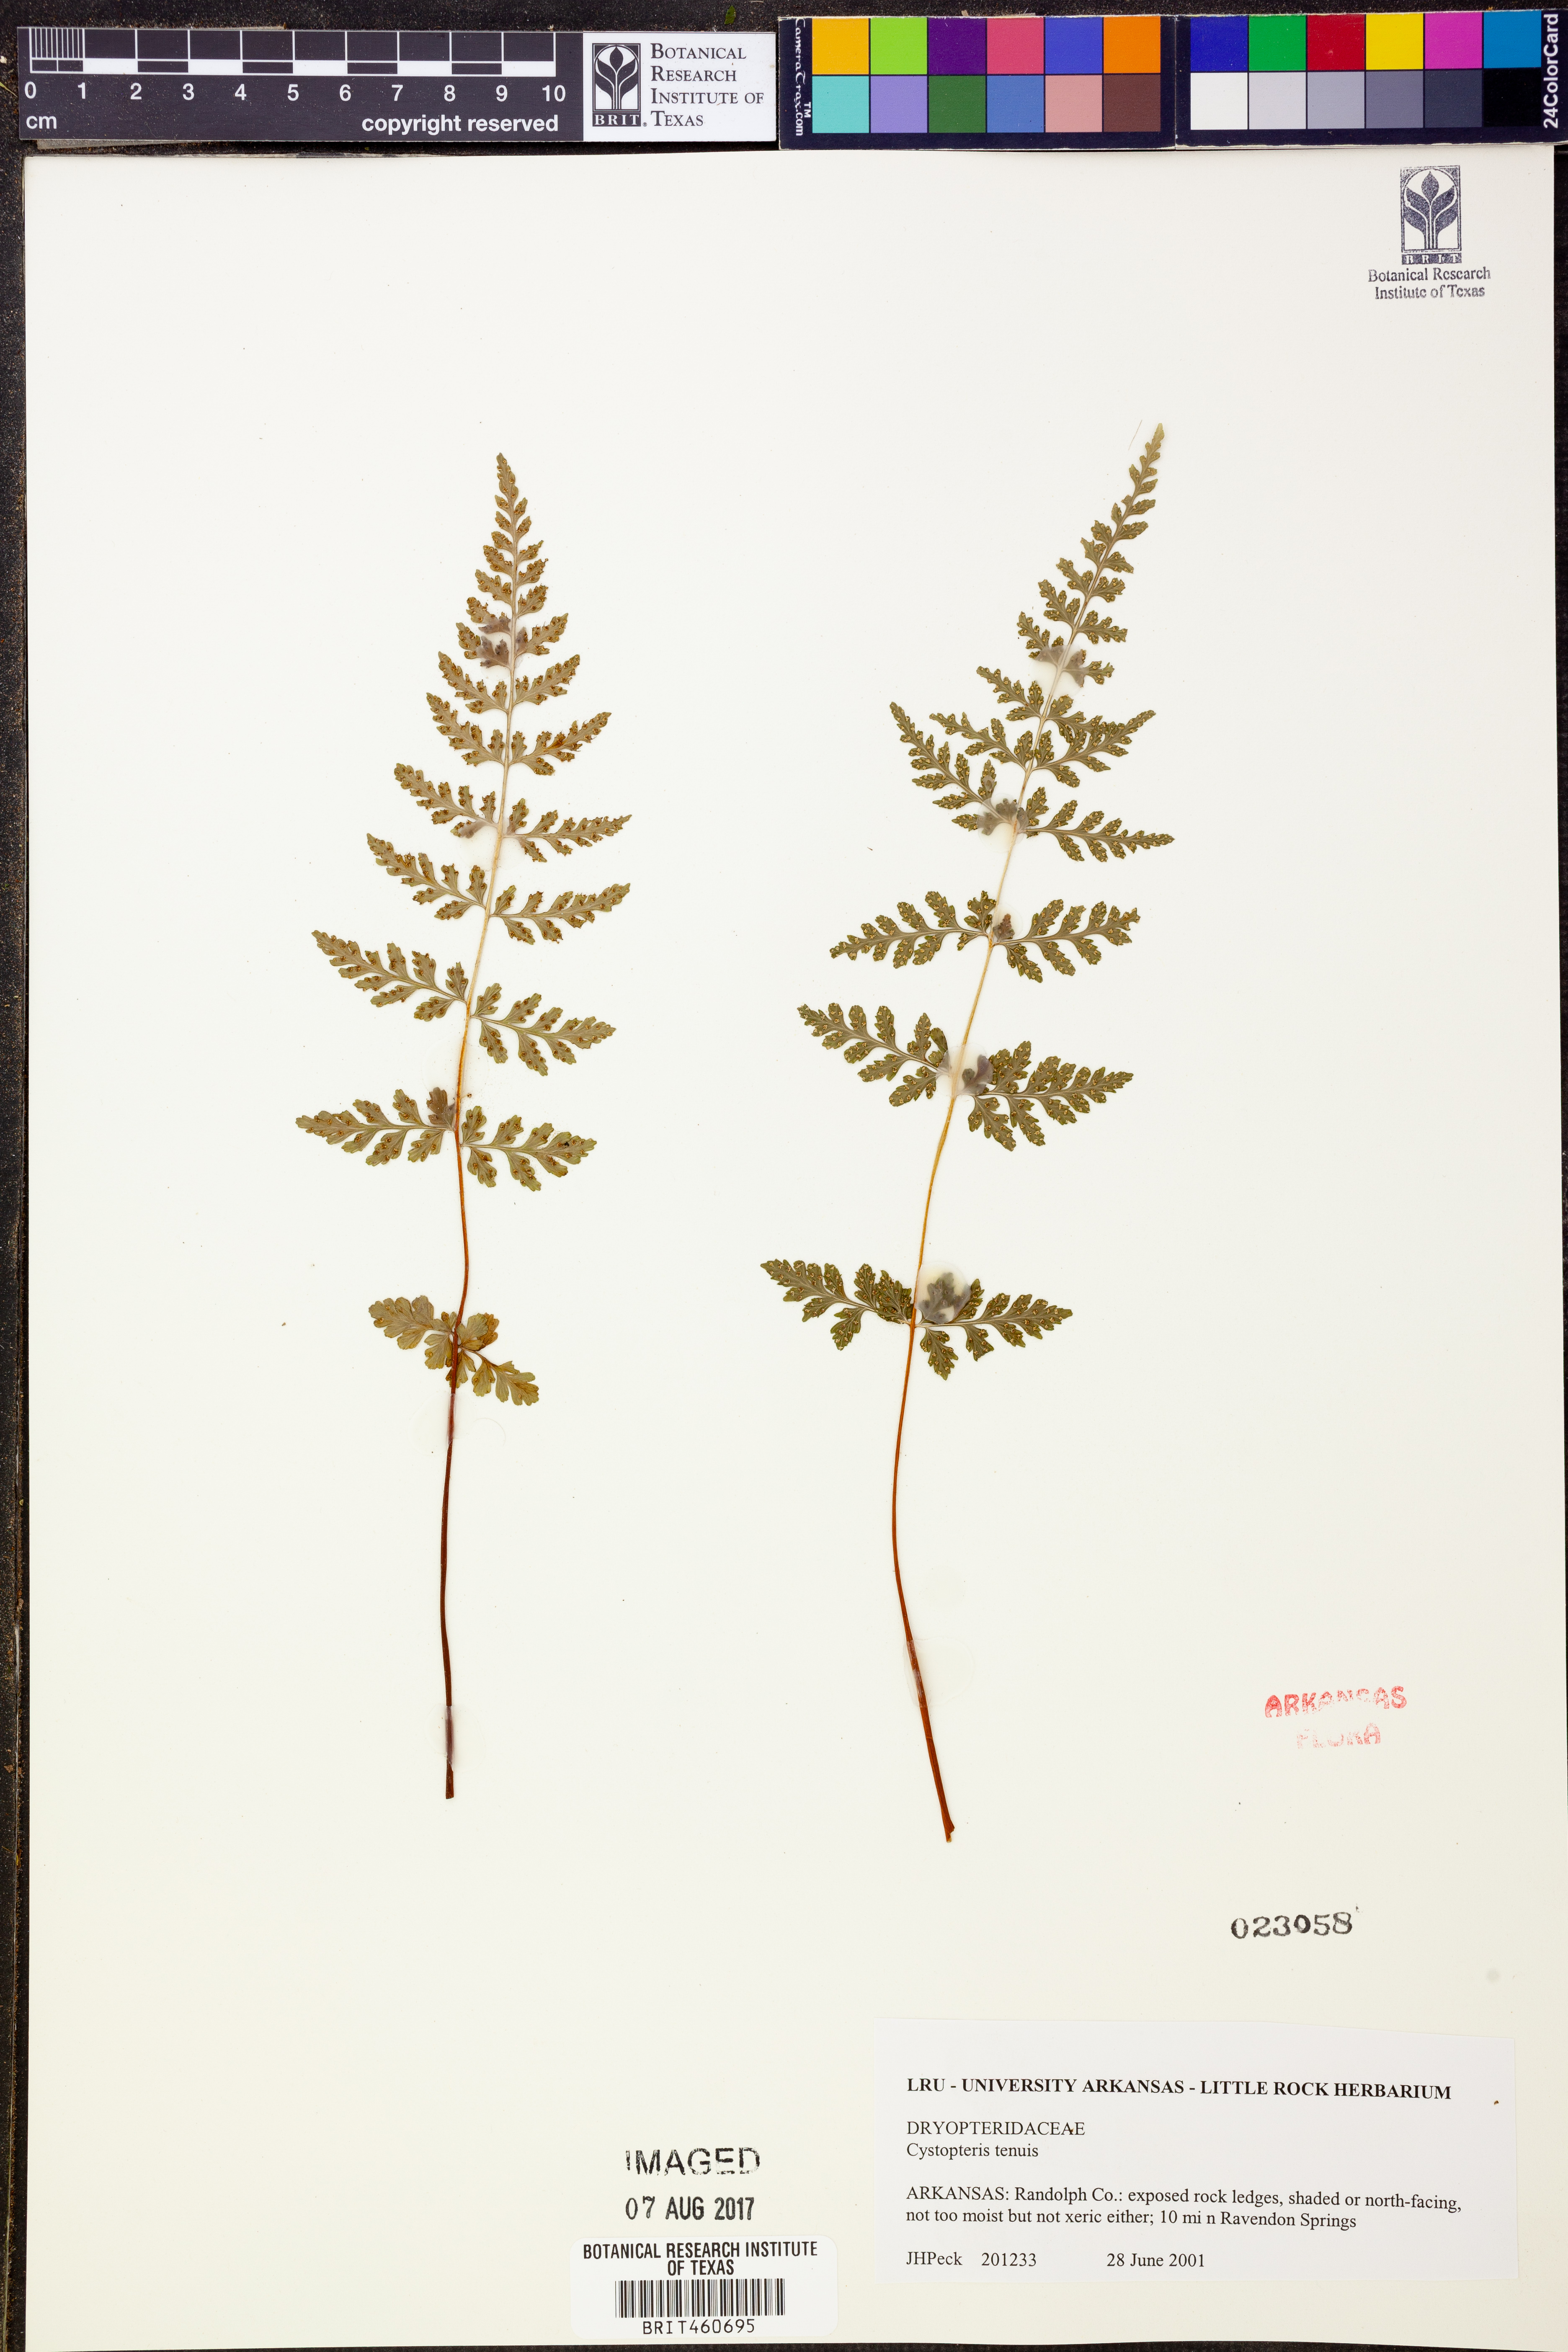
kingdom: Plantae
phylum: Tracheophyta
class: Polypodiopsida
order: Polypodiales
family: Cystopteridaceae
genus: Cystopteris
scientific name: Cystopteris tenuis
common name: Mackay's brittle fern
